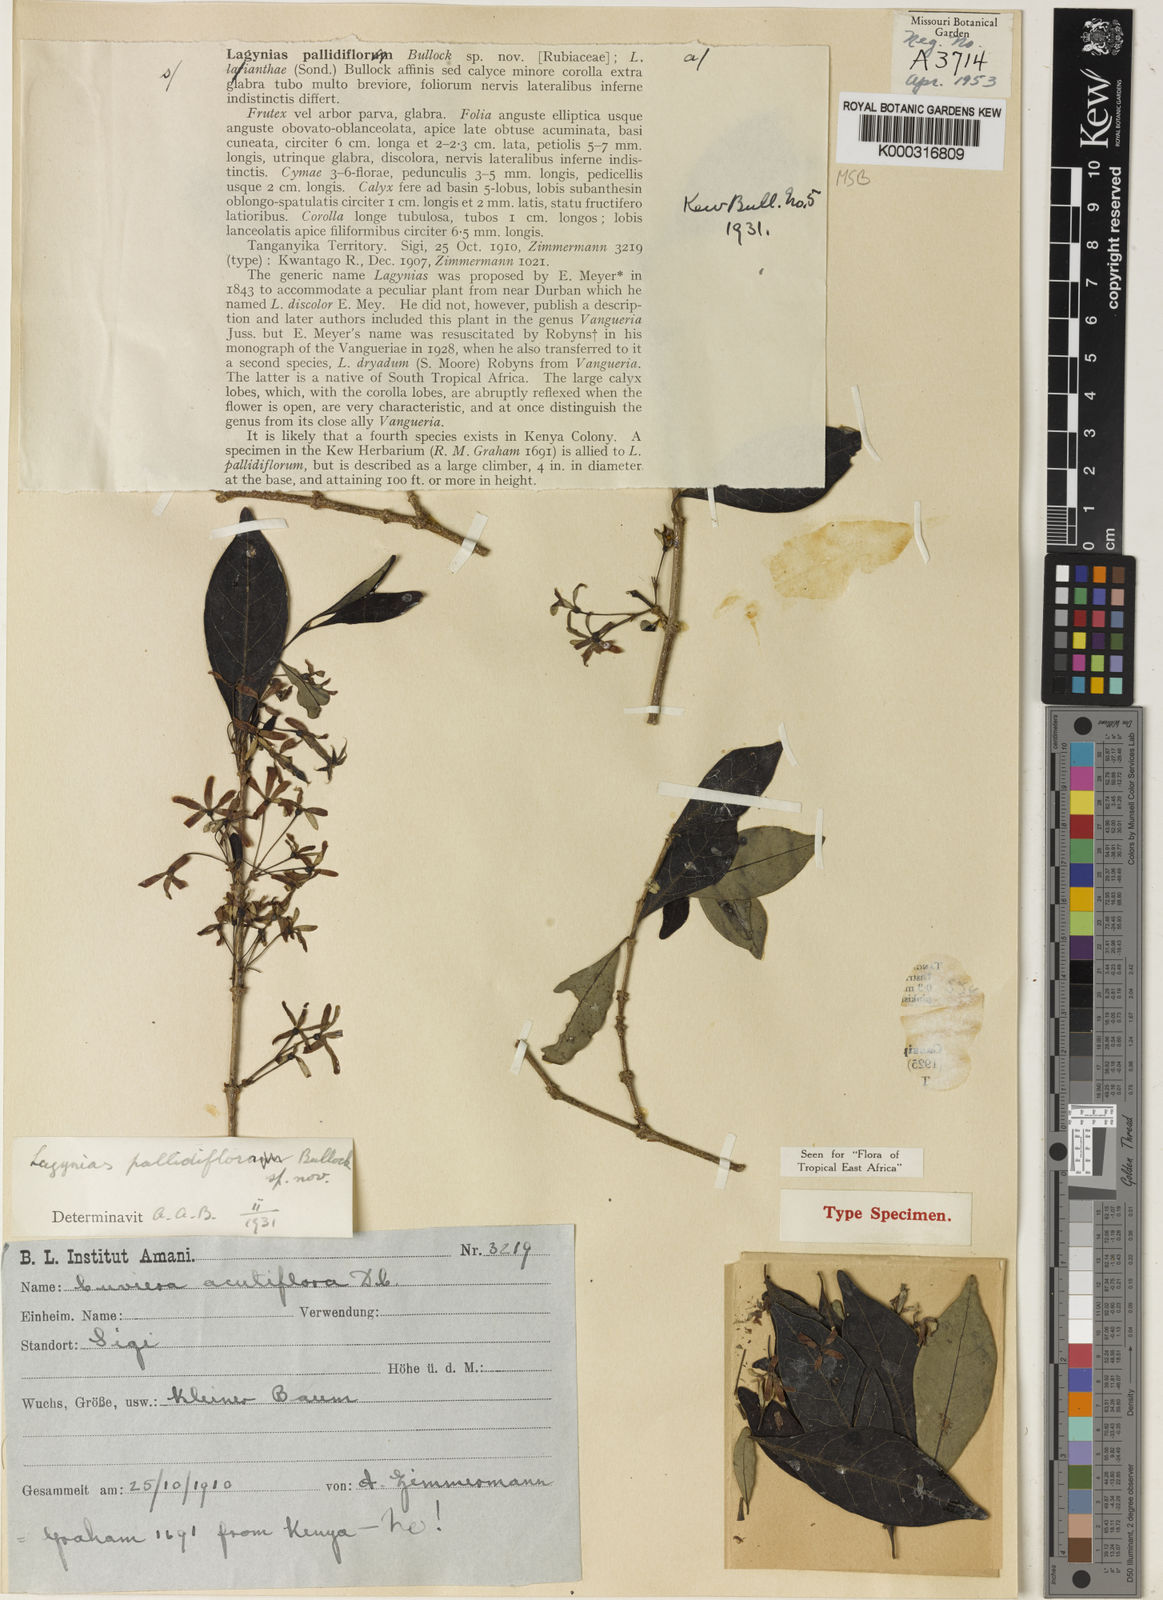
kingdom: Plantae
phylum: Tracheophyta
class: Magnoliopsida
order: Gentianales
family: Rubiaceae
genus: Vangueria
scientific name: Vangueria pallidiflora
